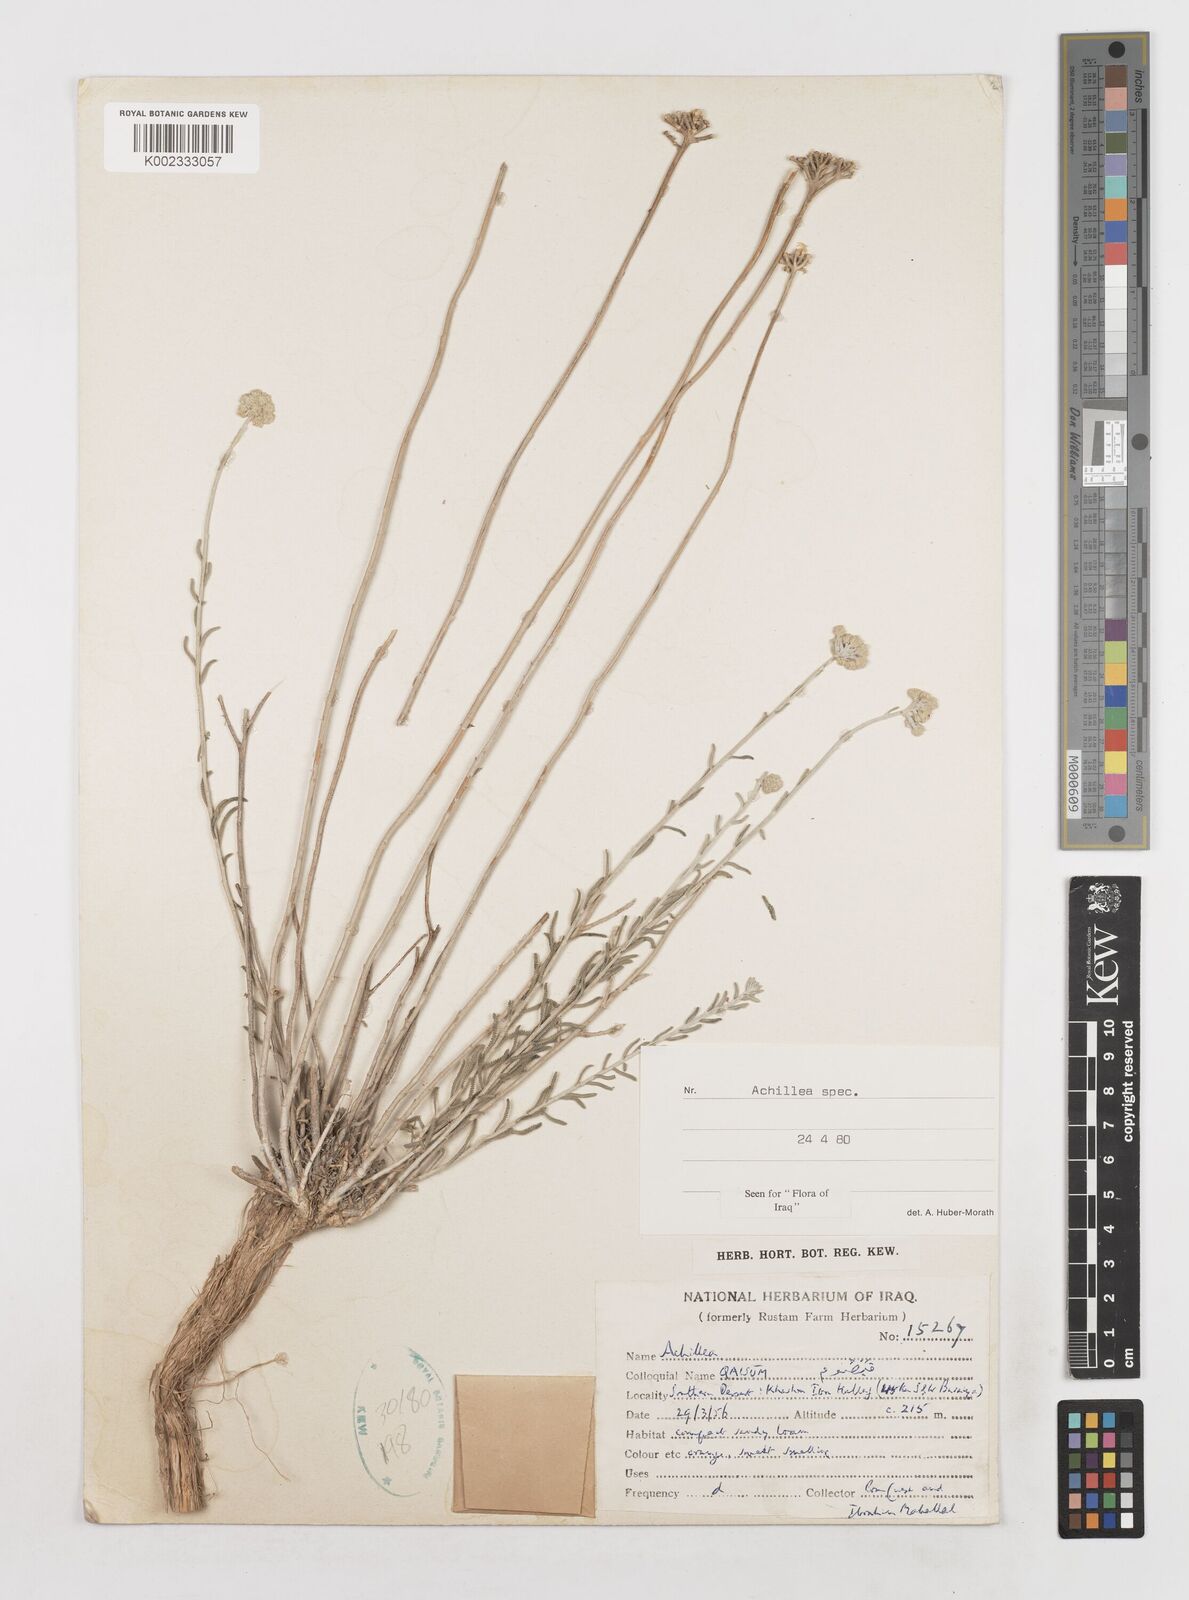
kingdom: Plantae
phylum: Tracheophyta
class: Magnoliopsida
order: Asterales
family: Asteraceae
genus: Achillea
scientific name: Achillea
